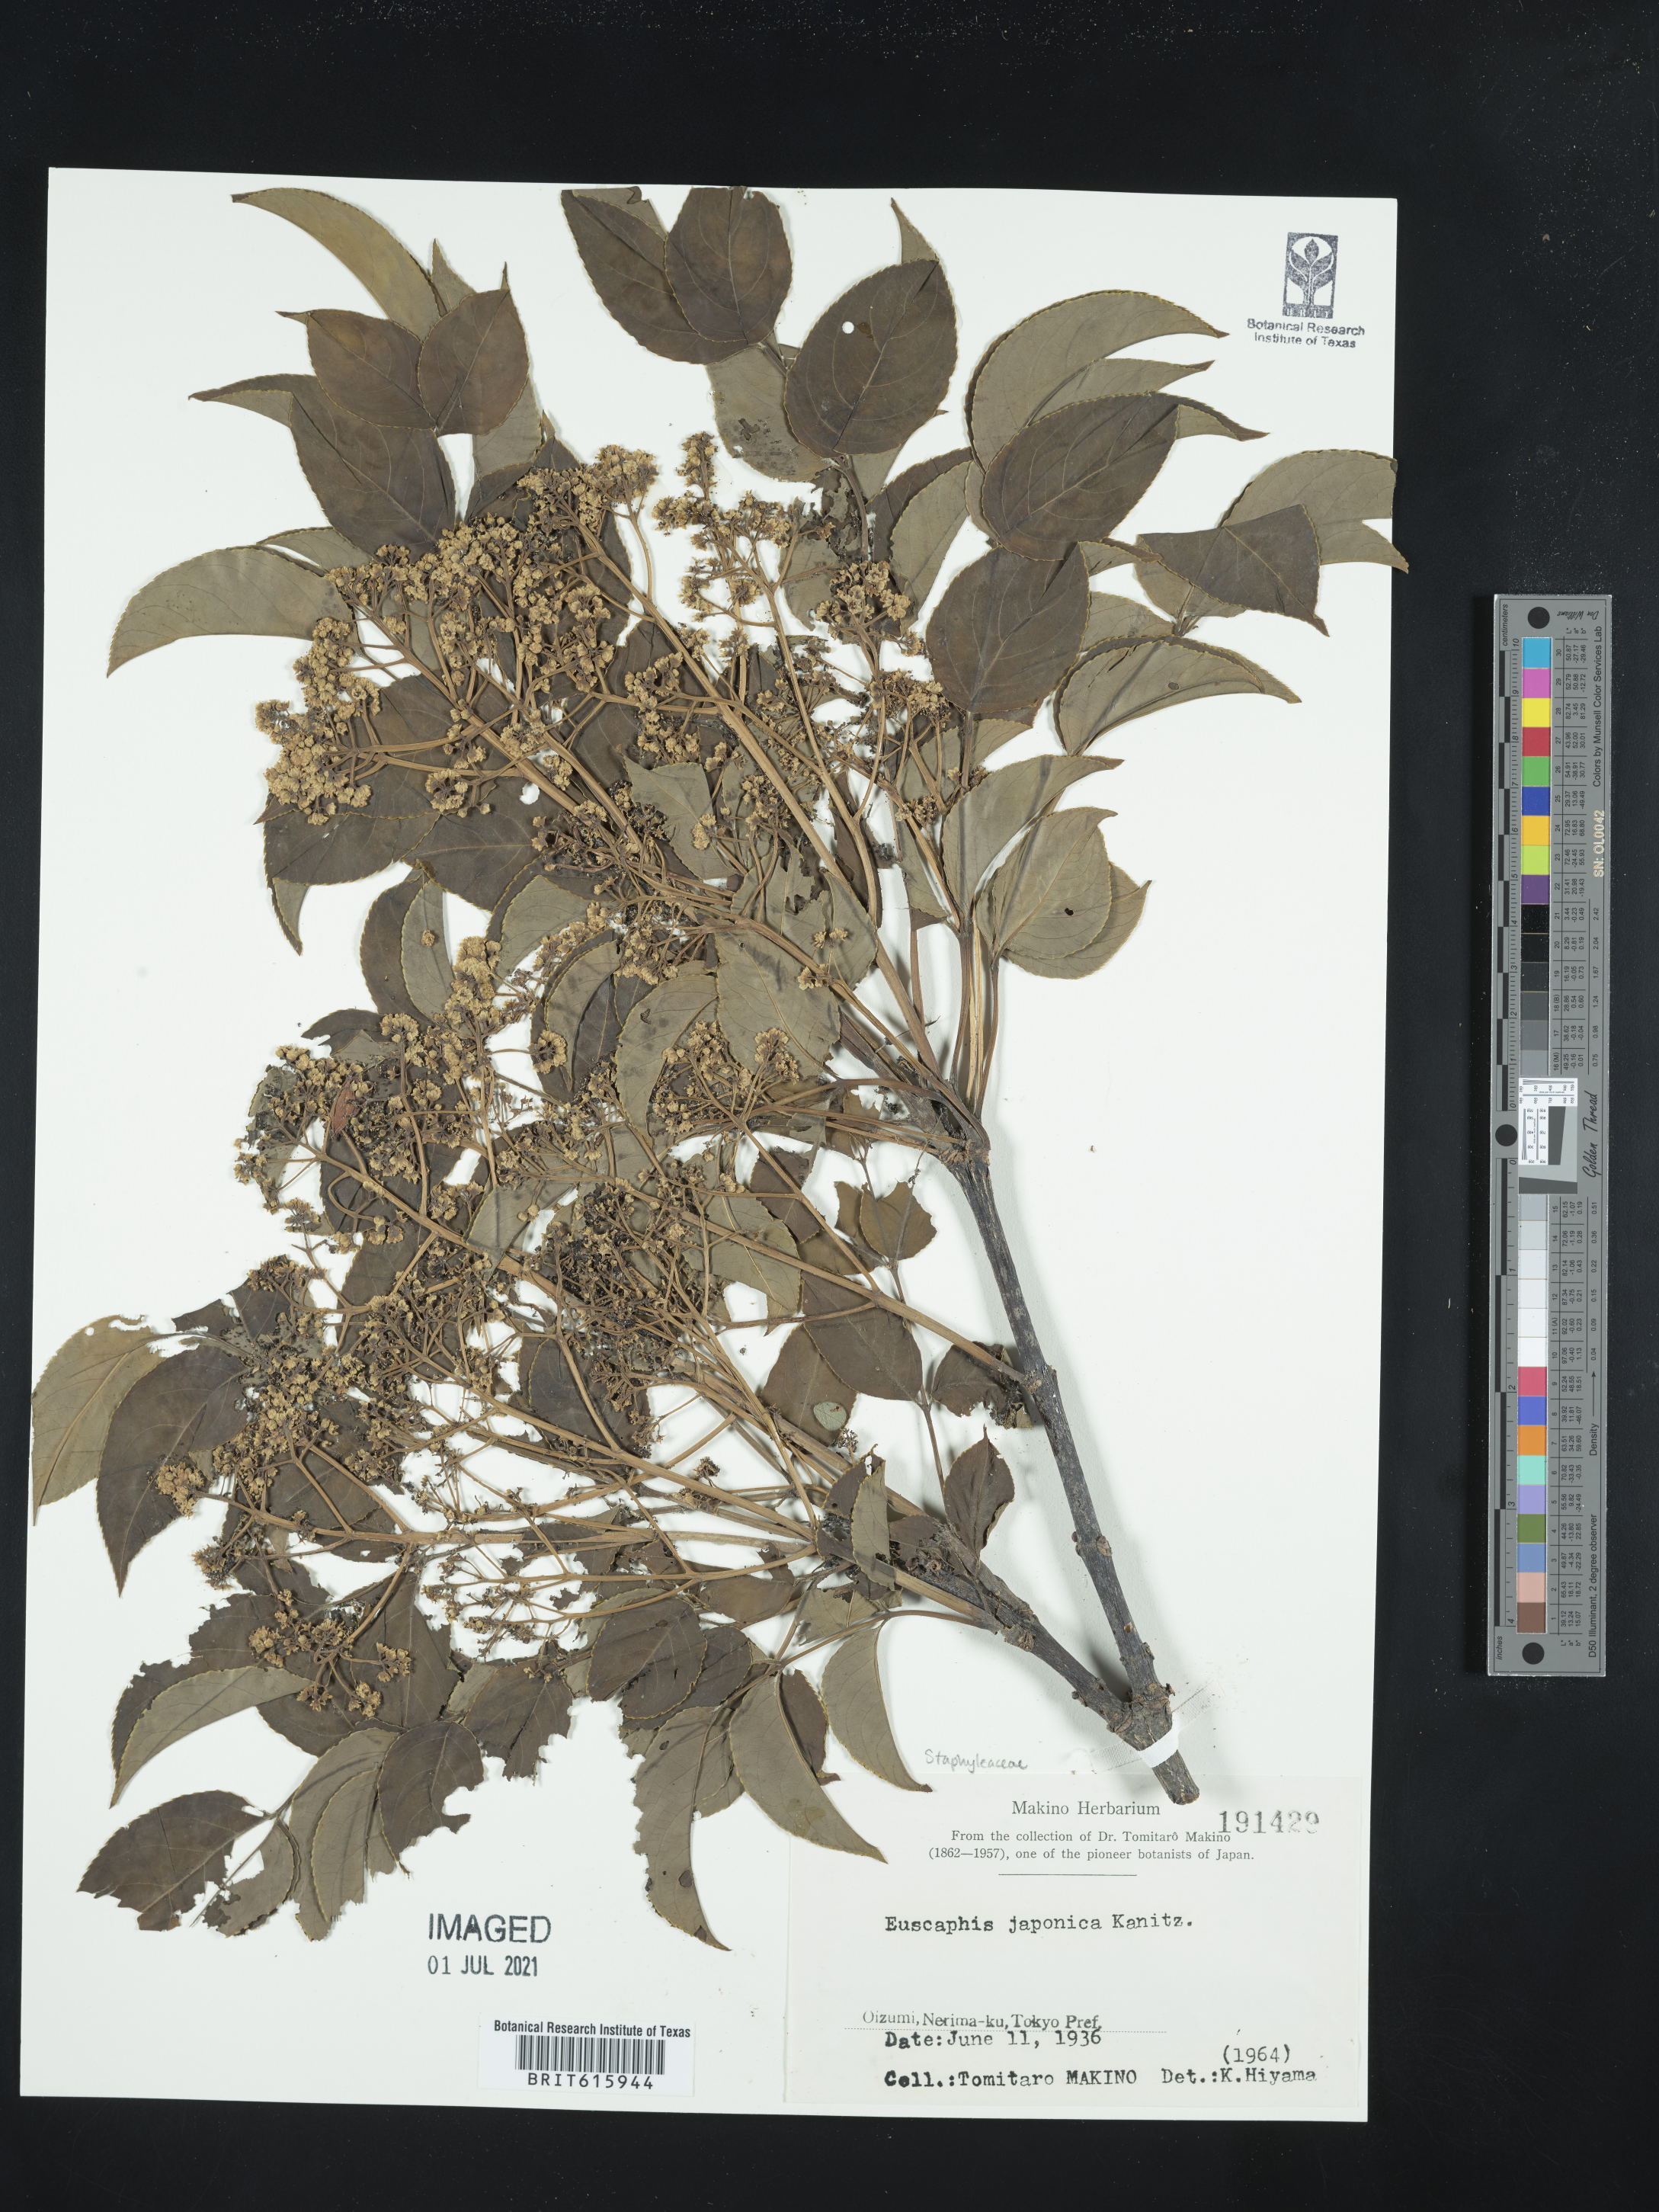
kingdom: Plantae
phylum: Tracheophyta
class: Magnoliopsida
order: Crossosomatales
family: Staphyleaceae
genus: Staphylea
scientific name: Staphylea japonica
